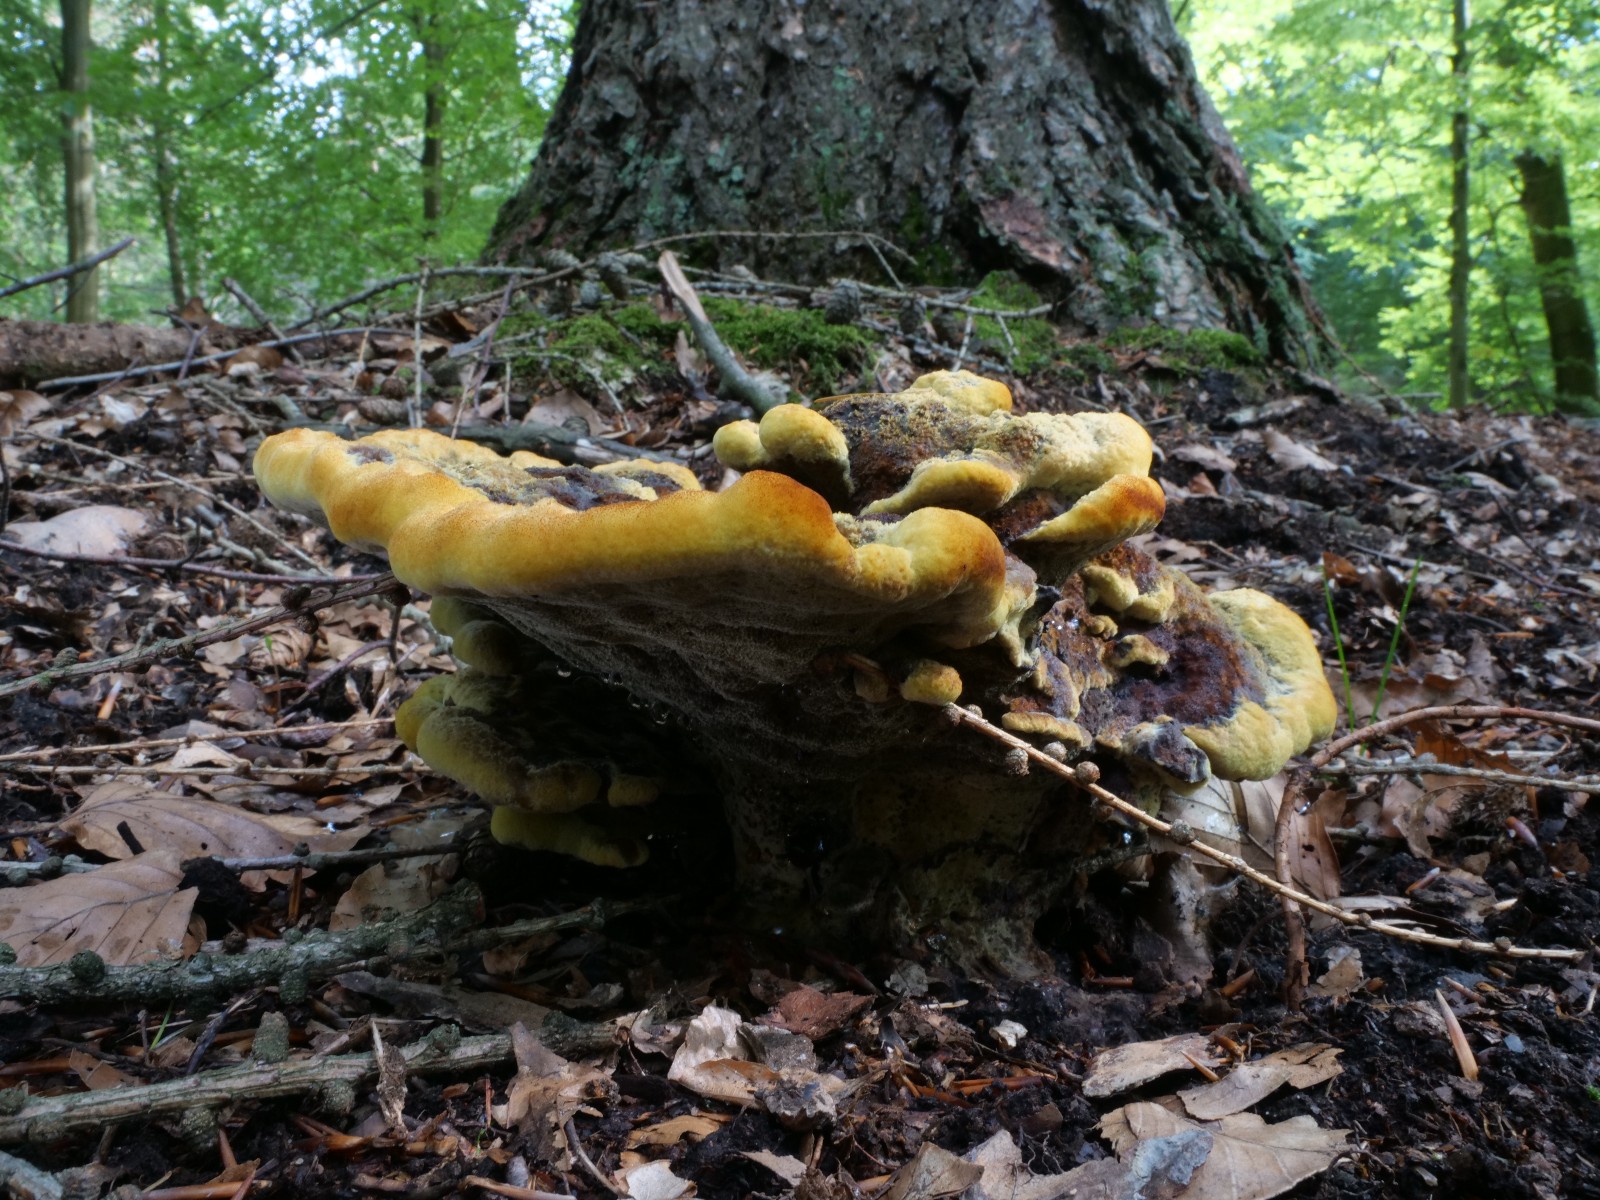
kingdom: Fungi
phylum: Basidiomycota
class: Agaricomycetes
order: Polyporales
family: Laetiporaceae
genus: Phaeolus
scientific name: Phaeolus schweinitzii
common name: brunporesvamp
